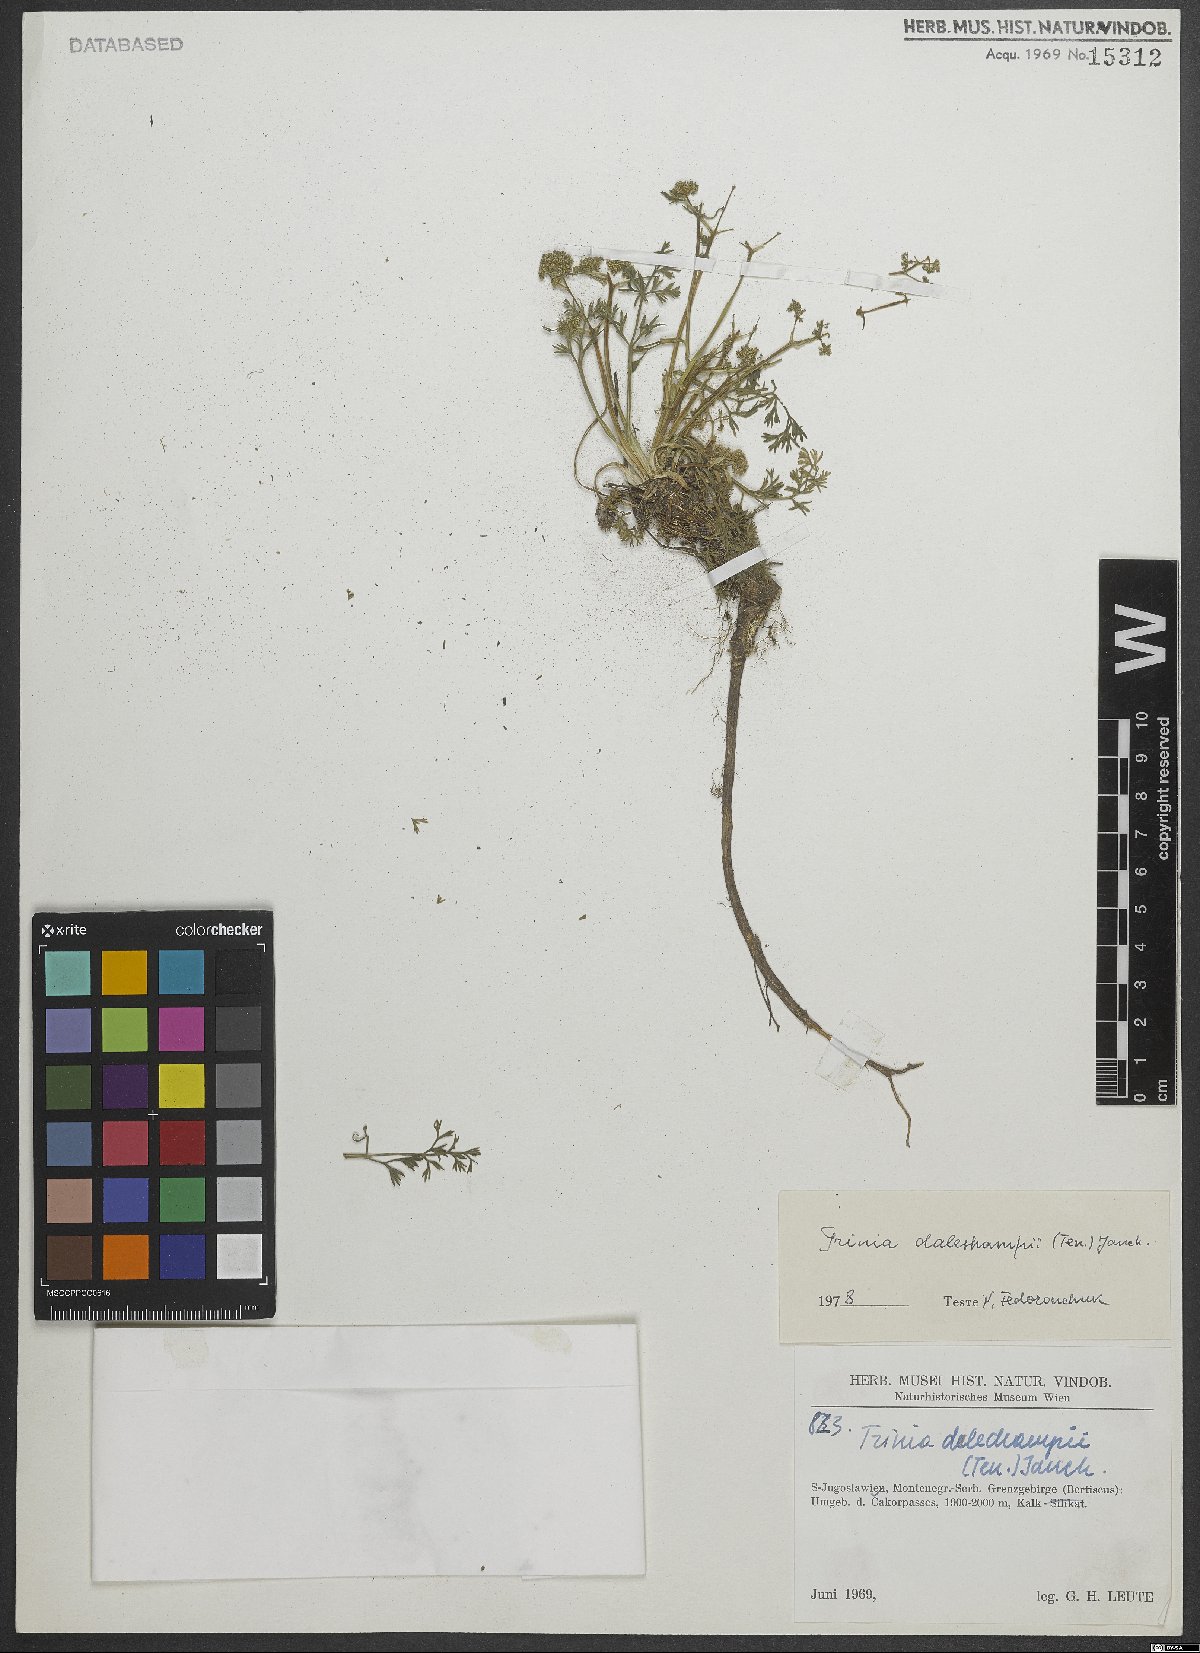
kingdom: Plantae
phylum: Tracheophyta
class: Magnoliopsida
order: Apiales
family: Apiaceae
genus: Trinia
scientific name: Trinia dalechampii
